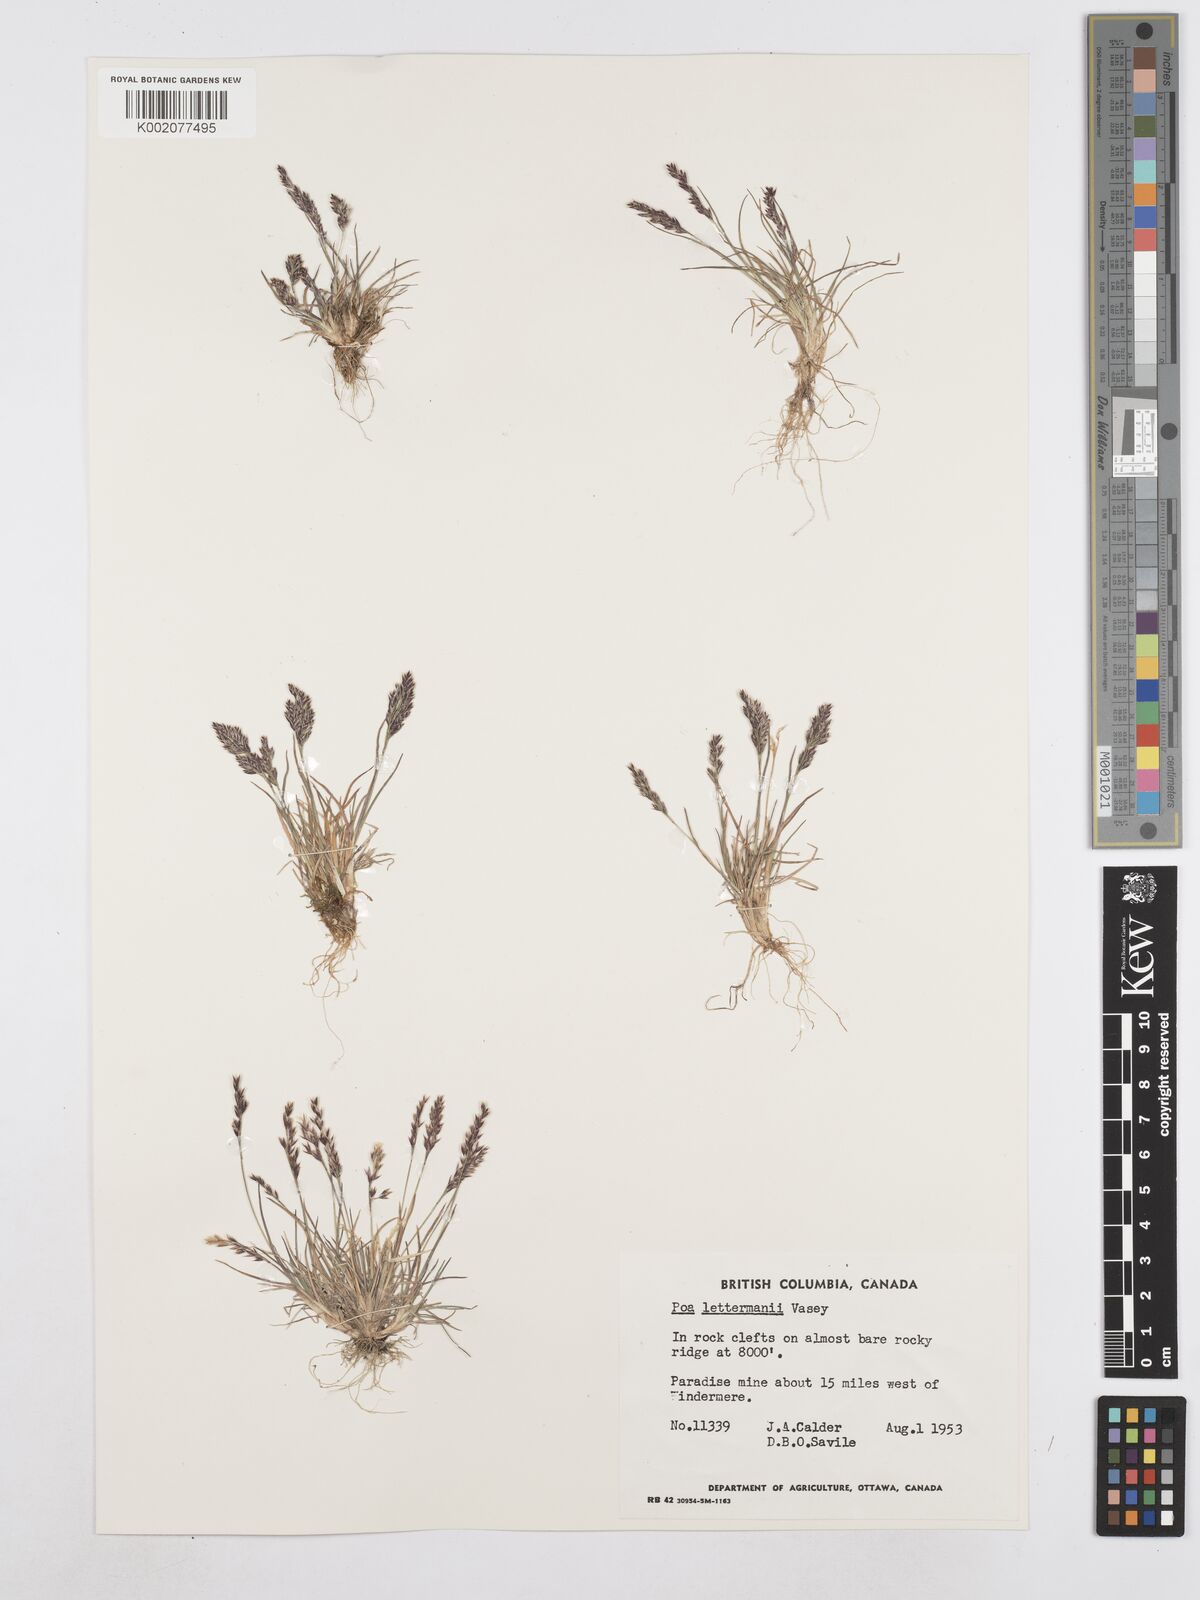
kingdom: Plantae
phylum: Tracheophyta
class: Liliopsida
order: Poales
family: Poaceae
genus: Poa
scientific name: Poa lettermanii
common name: Letterman's bluegrass
